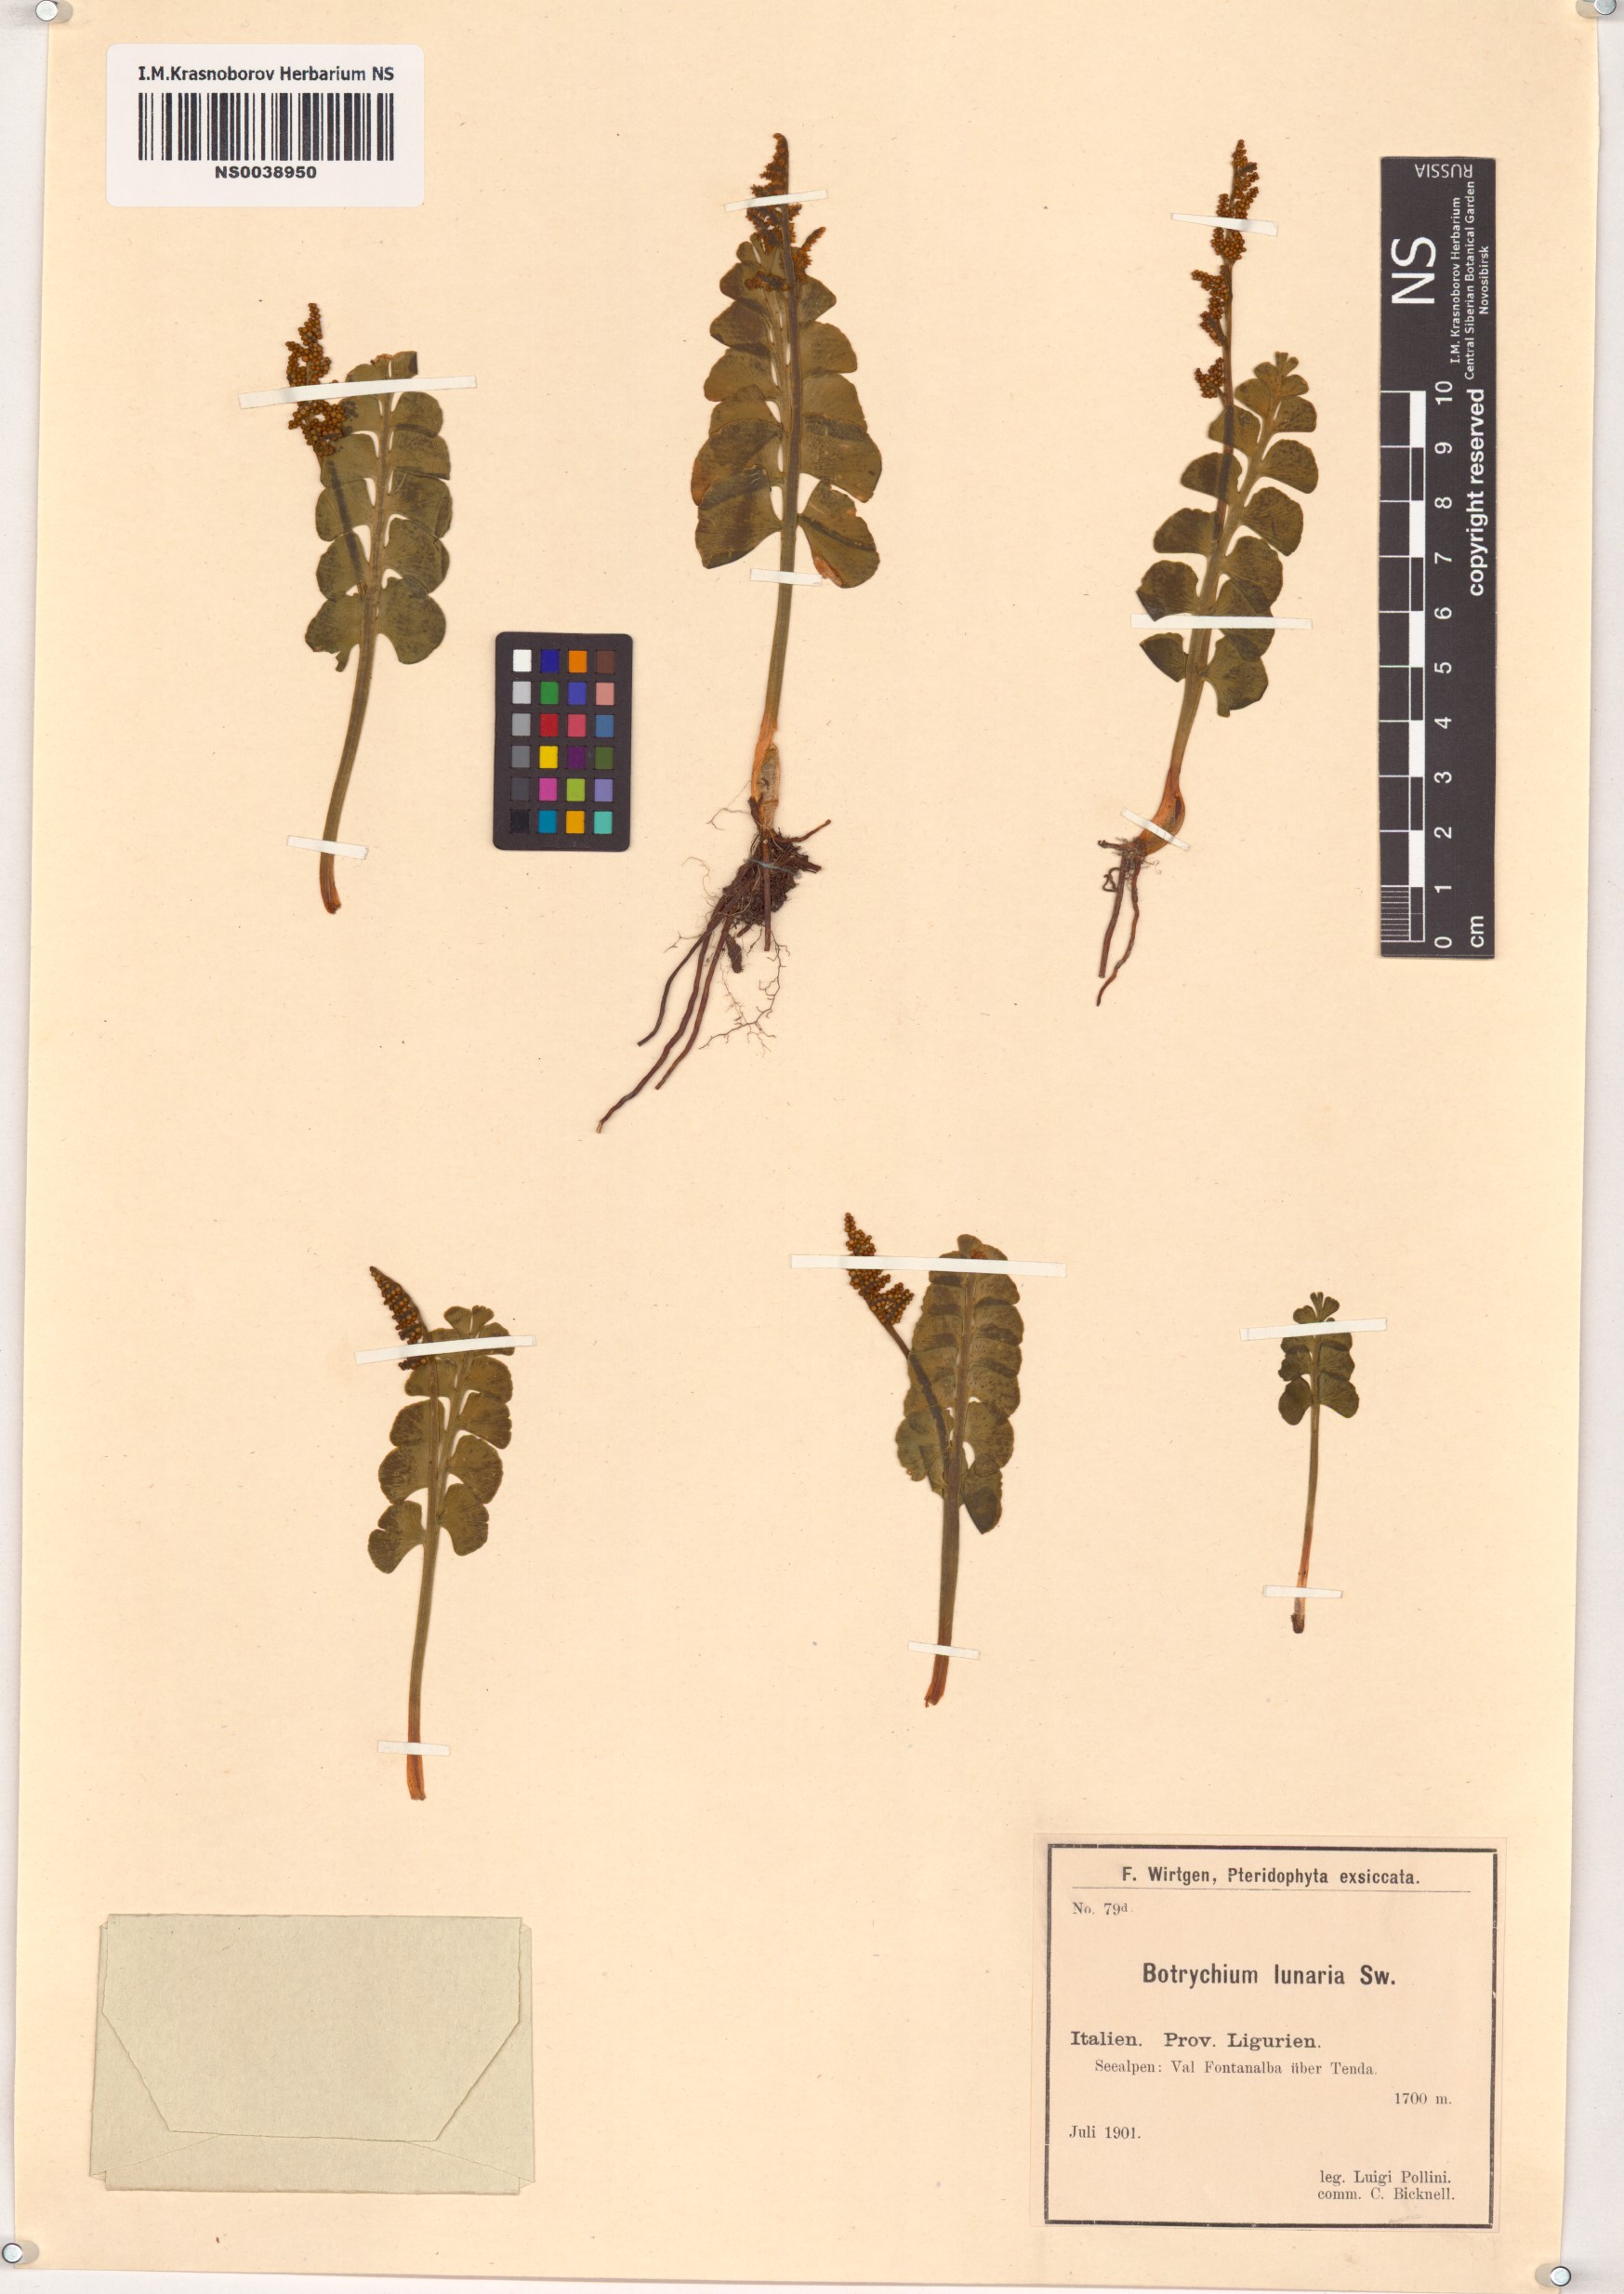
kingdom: Plantae
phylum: Tracheophyta
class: Polypodiopsida
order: Ophioglossales
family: Ophioglossaceae
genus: Botrychium
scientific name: Botrychium lunaria
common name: Moonwort
